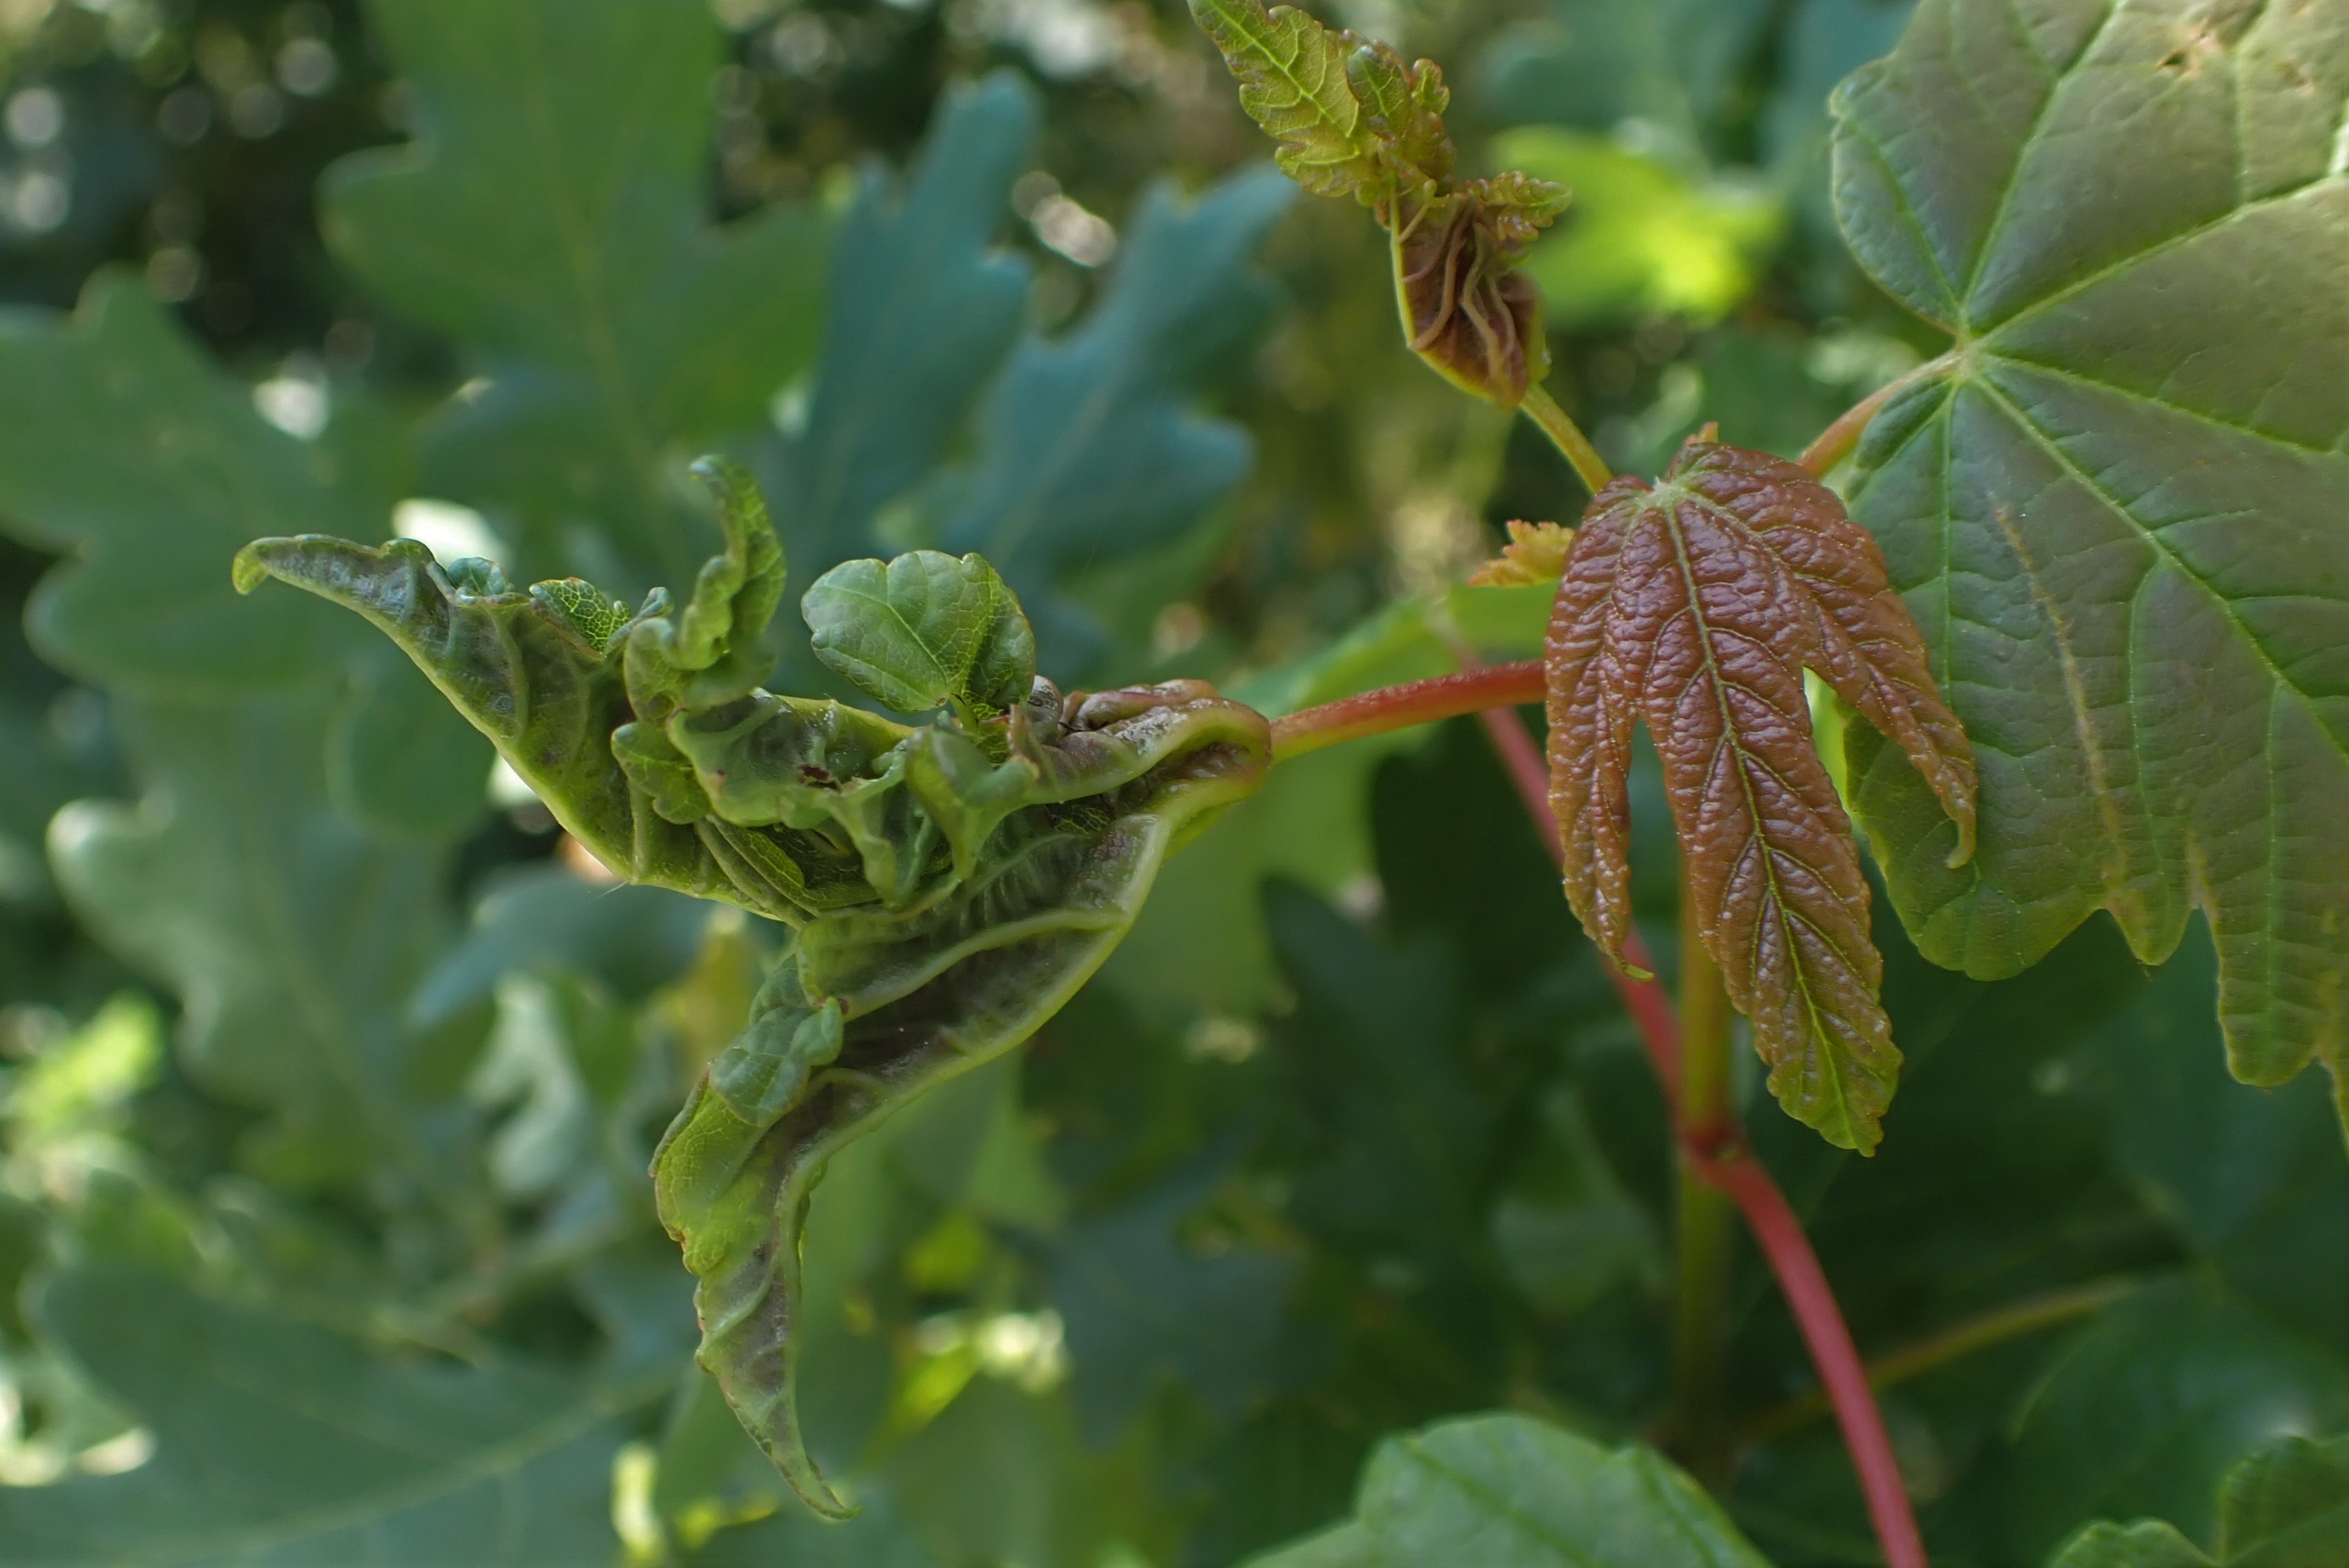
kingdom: Animalia
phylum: Arthropoda
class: Insecta
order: Diptera
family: Cecidomyiidae
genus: Dasineura
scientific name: Dasineura irregularis
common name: Ahornkrusegalmyg
